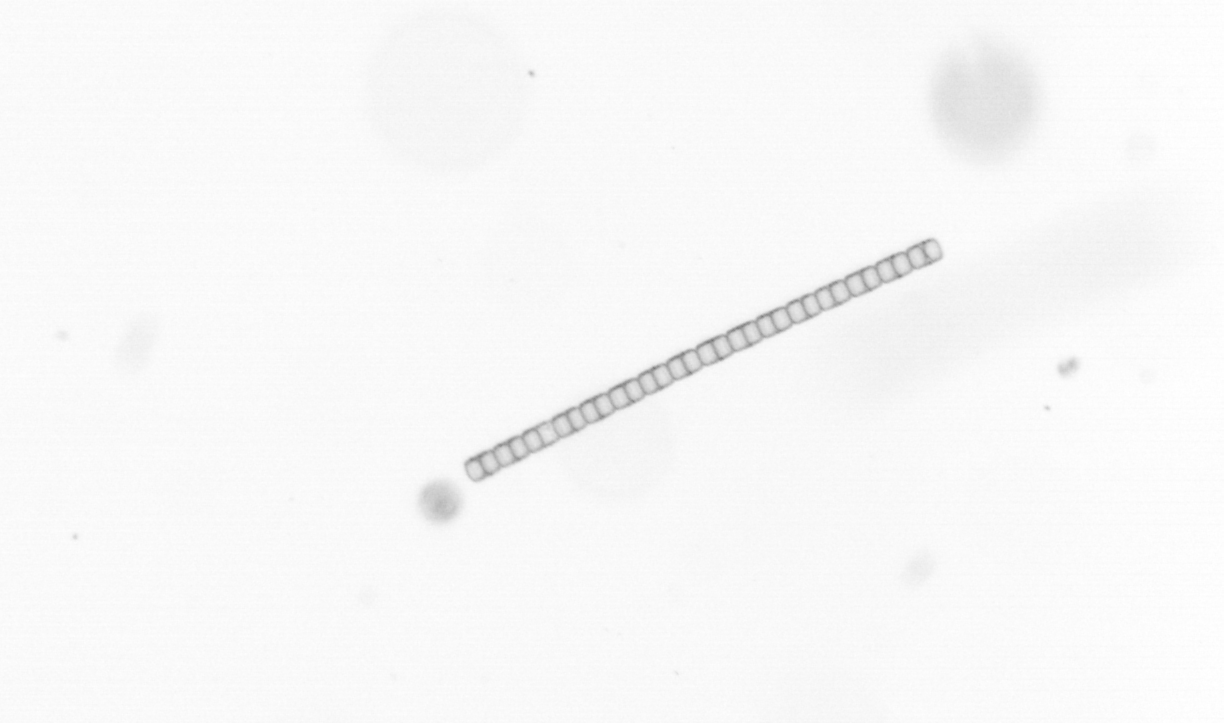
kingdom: Chromista
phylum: Ochrophyta
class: Bacillariophyceae
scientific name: Bacillariophyceae
